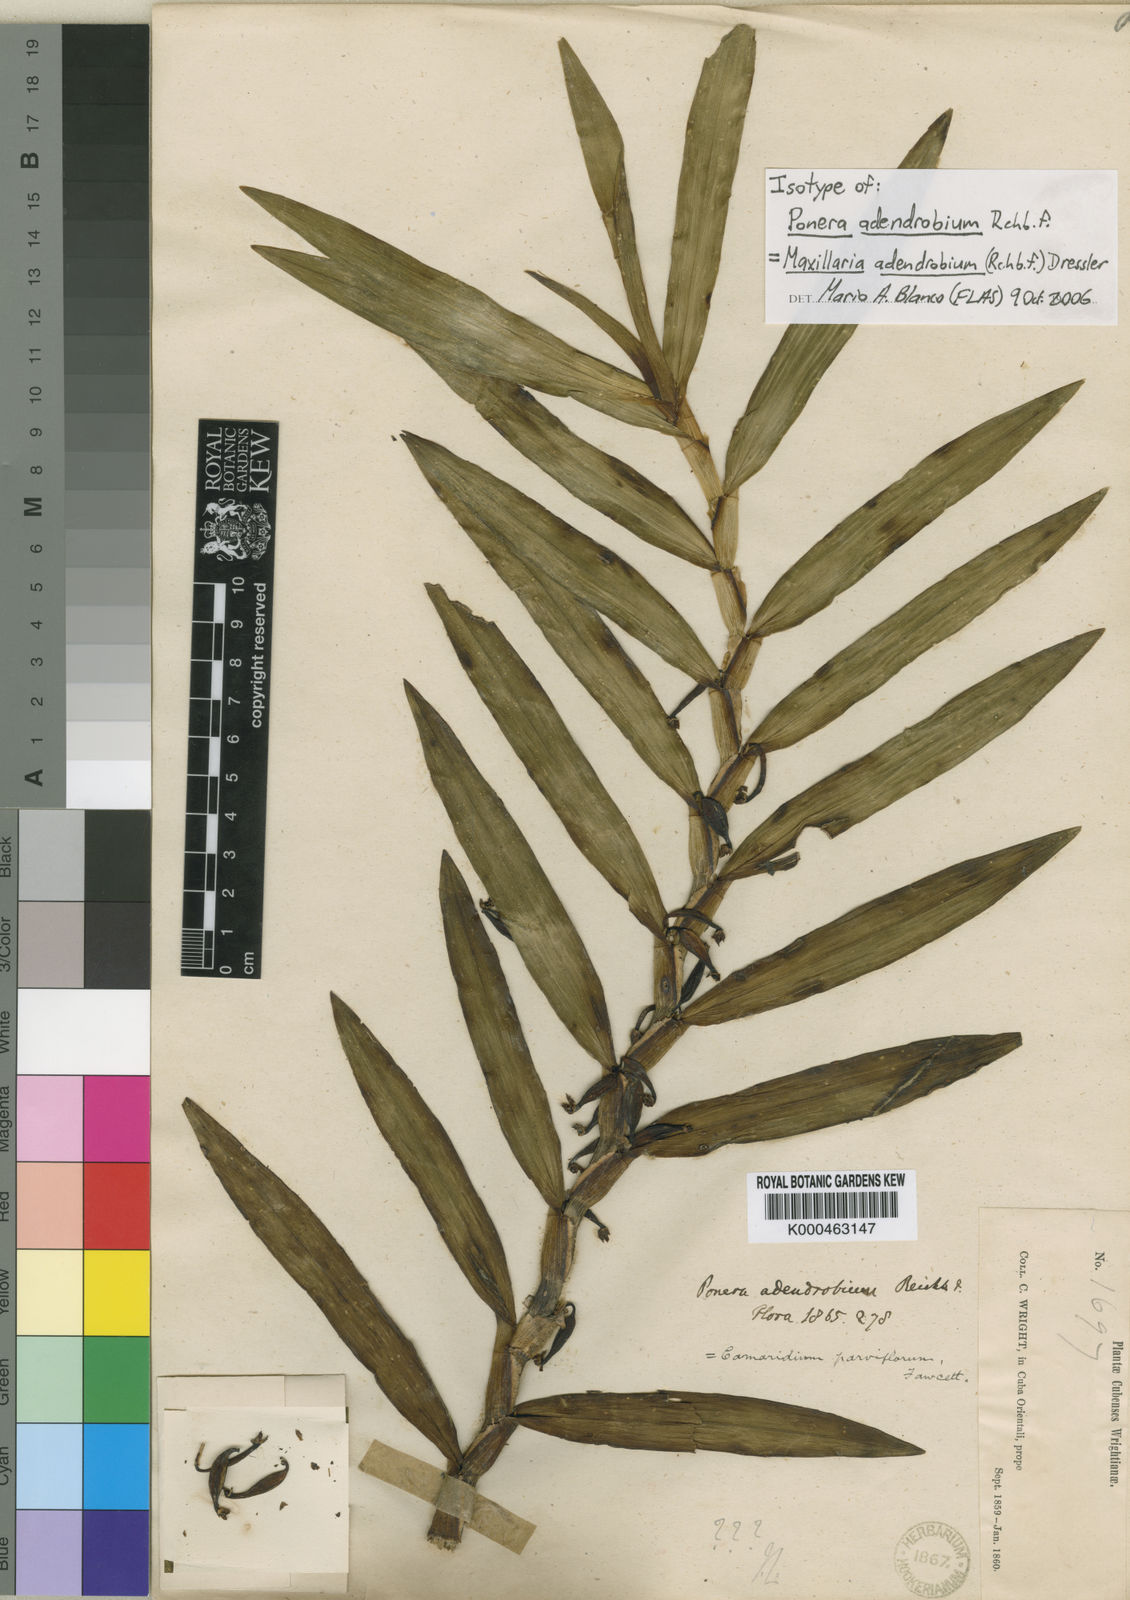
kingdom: Plantae
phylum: Tracheophyta
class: Liliopsida
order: Asparagales
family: Orchidaceae
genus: Maxillaria
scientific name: Maxillaria adendrobium
